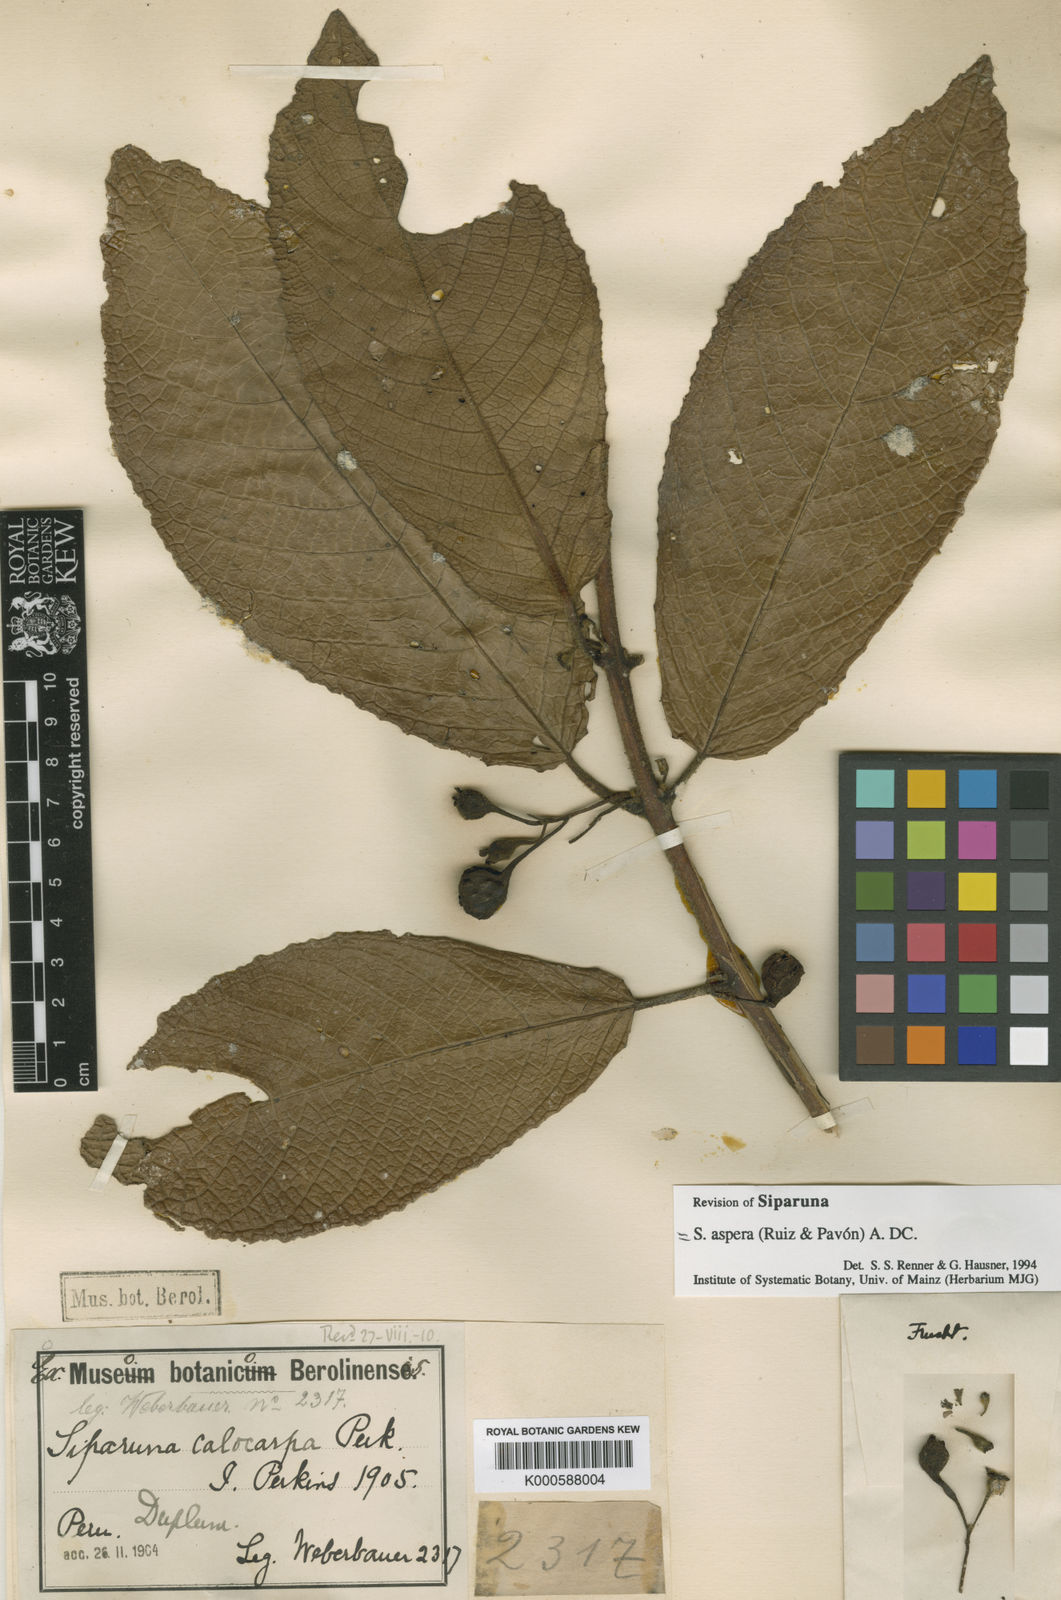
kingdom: Plantae
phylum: Tracheophyta
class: Magnoliopsida
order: Laurales
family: Siparunaceae
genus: Siparuna
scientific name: Siparuna tomentosa
